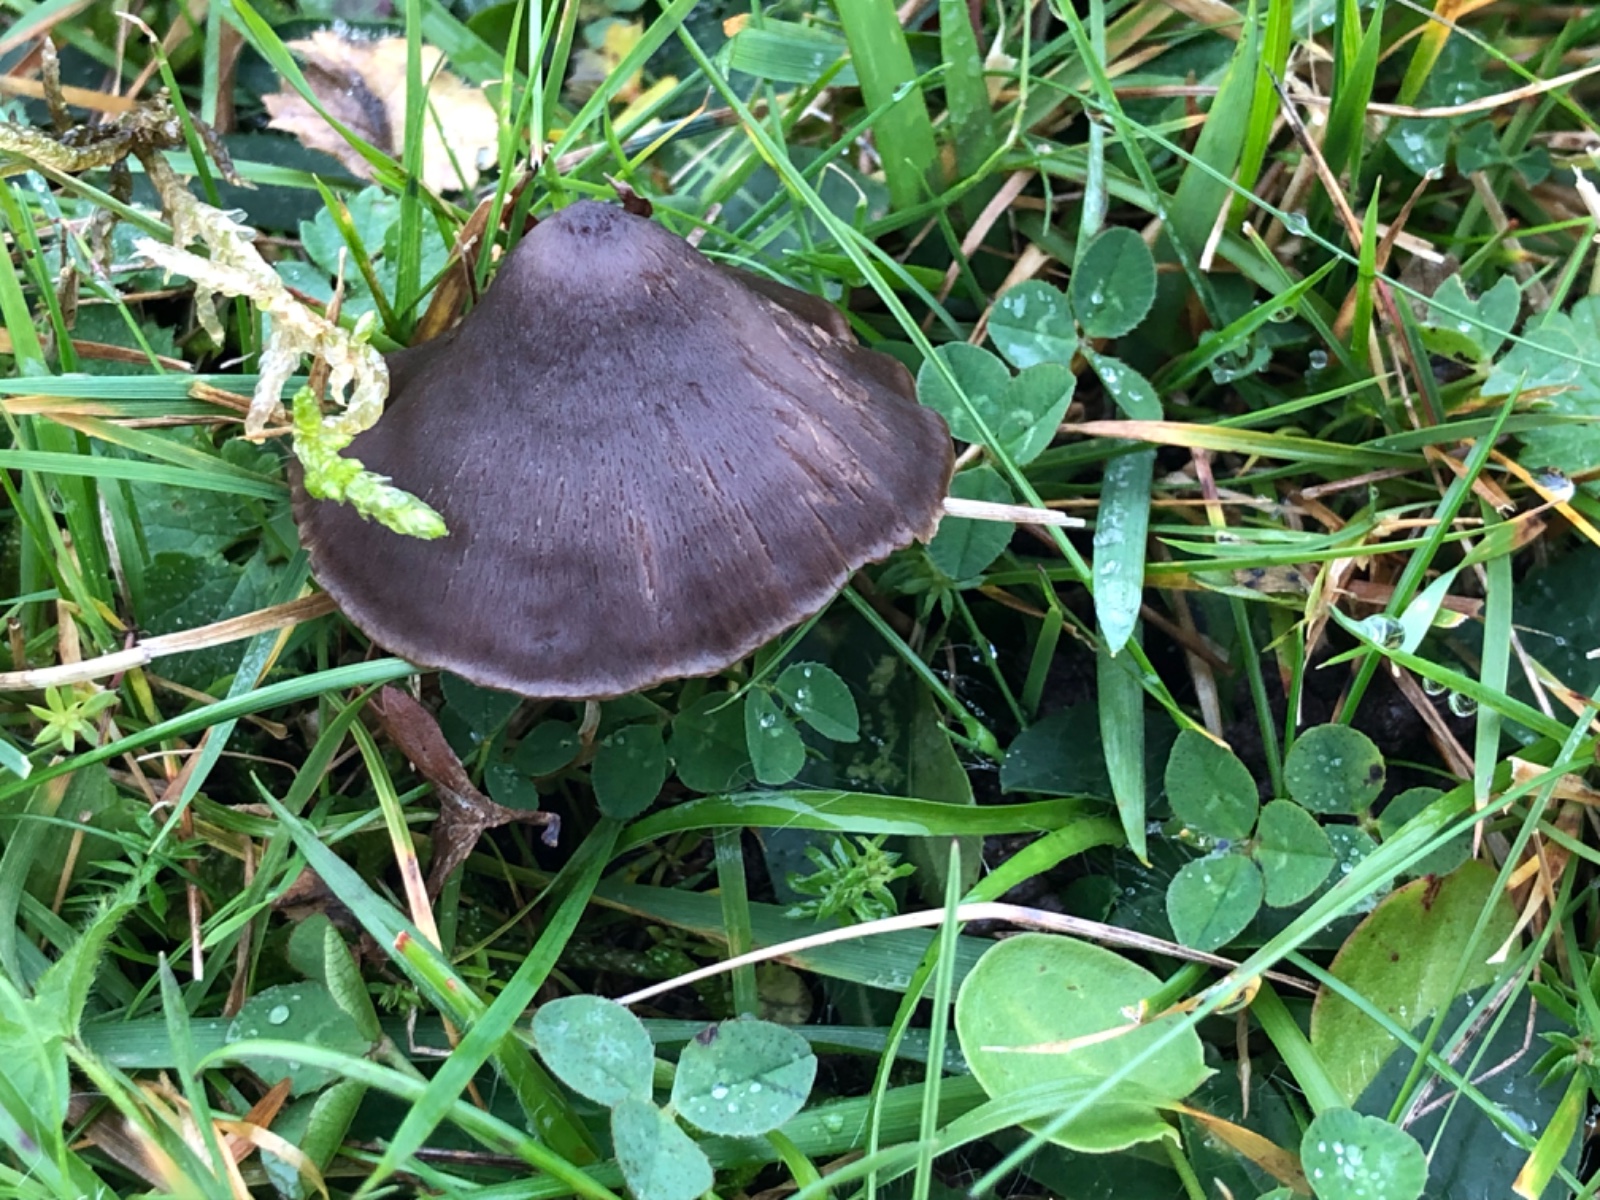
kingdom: Fungi
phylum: Basidiomycota
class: Agaricomycetes
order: Agaricales
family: Entolomataceae
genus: Entoloma
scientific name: Entoloma clandestinum
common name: tykbladet rødblad
